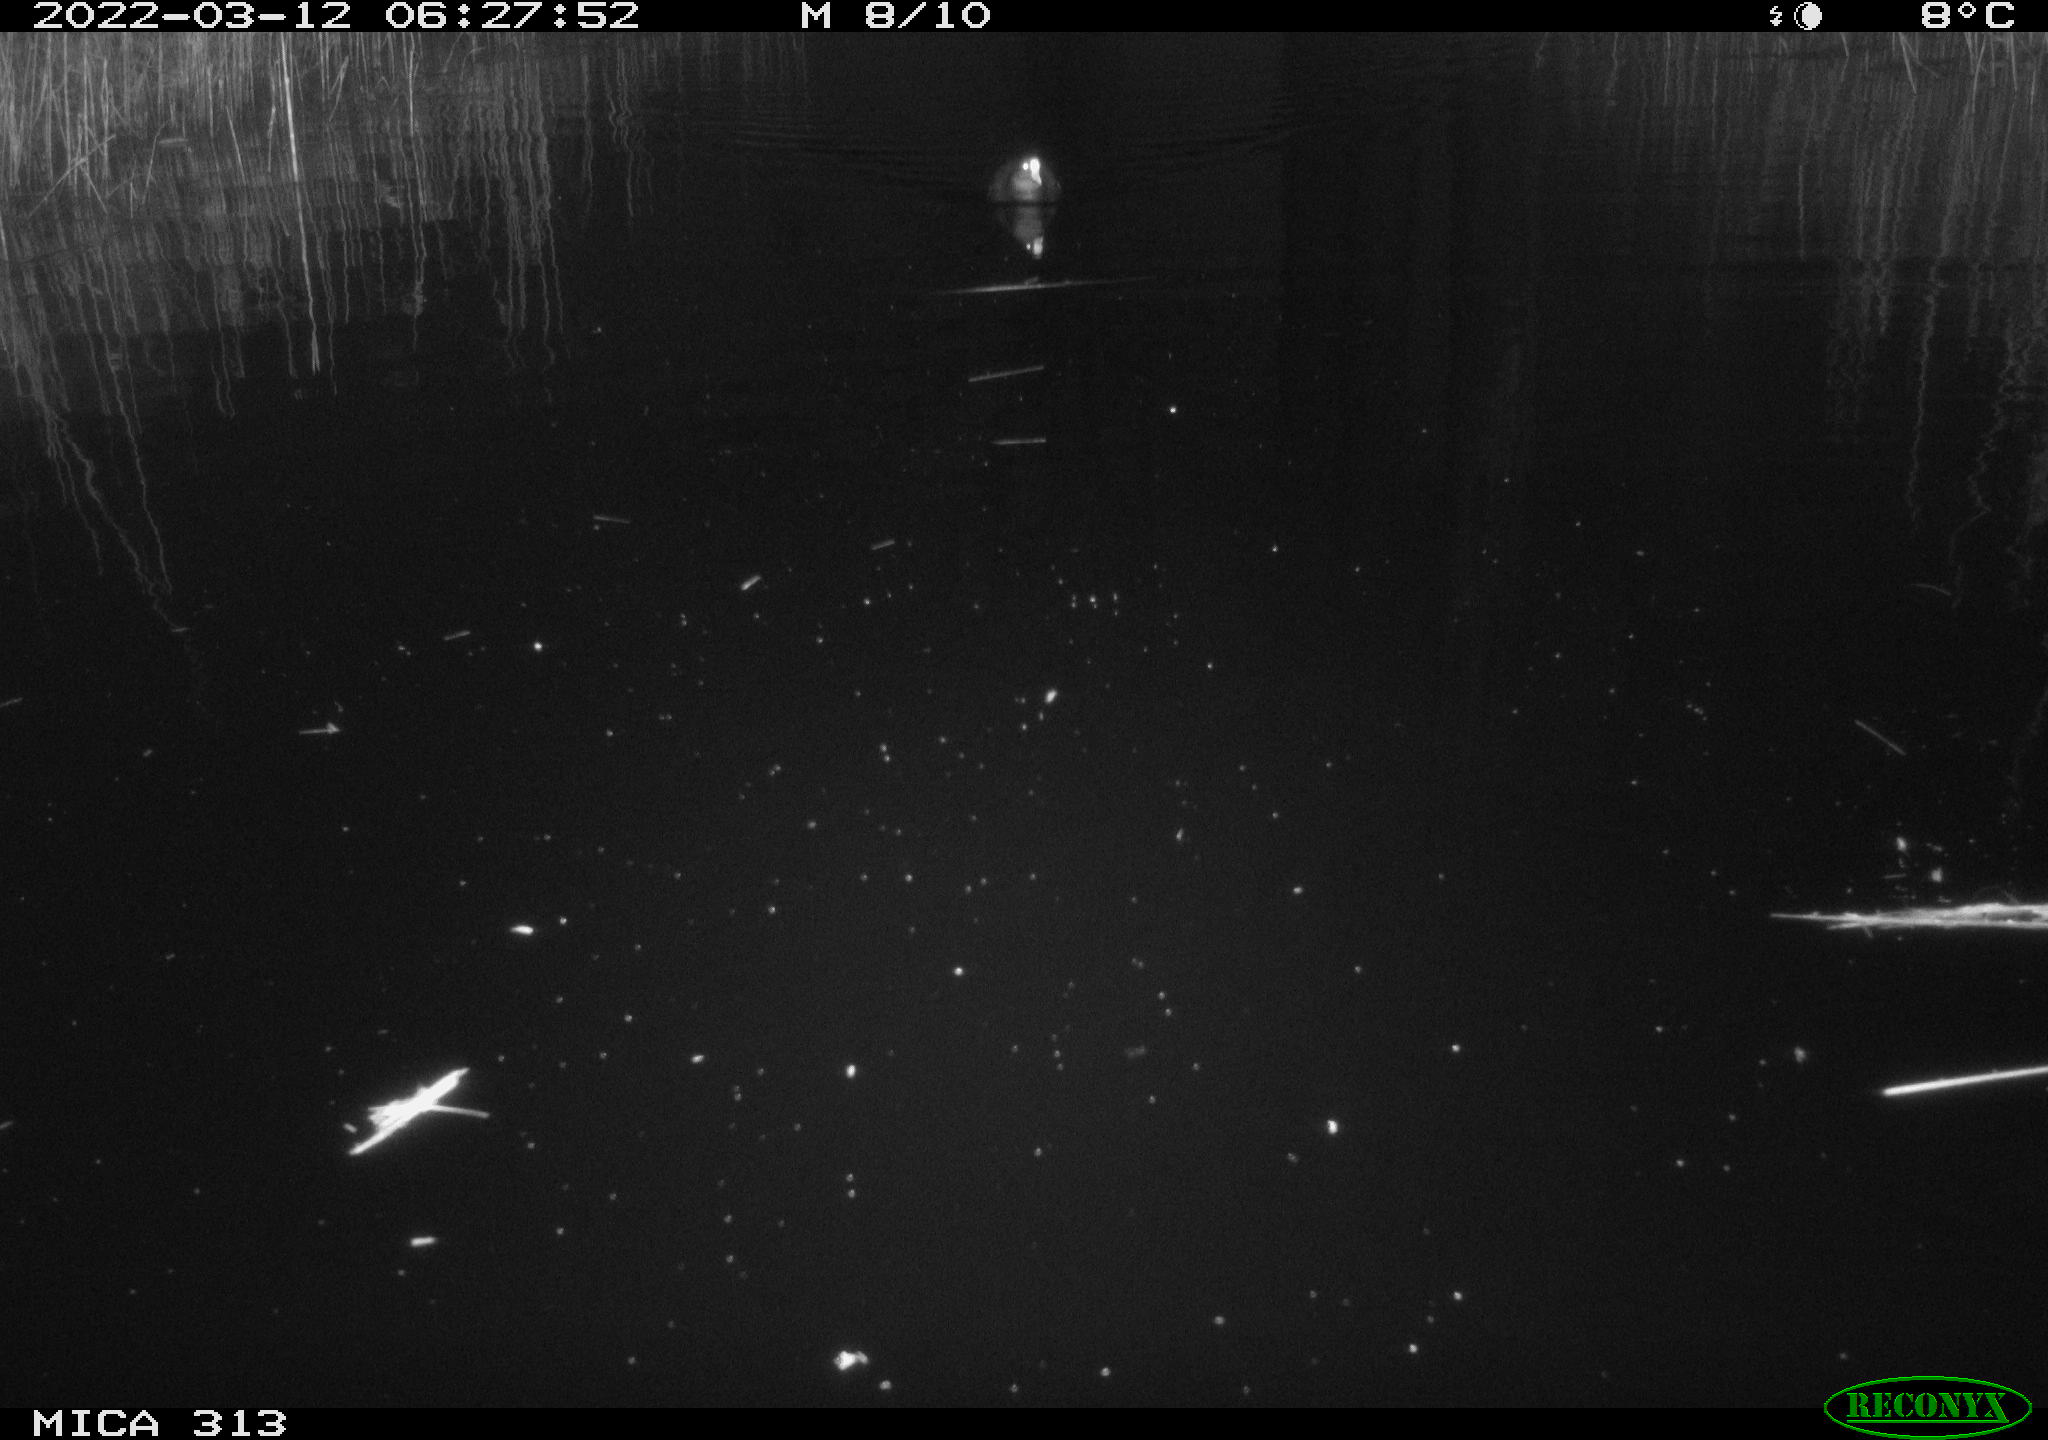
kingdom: Animalia
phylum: Chordata
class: Aves
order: Gruiformes
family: Rallidae
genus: Gallinula
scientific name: Gallinula chloropus
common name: Common moorhen
